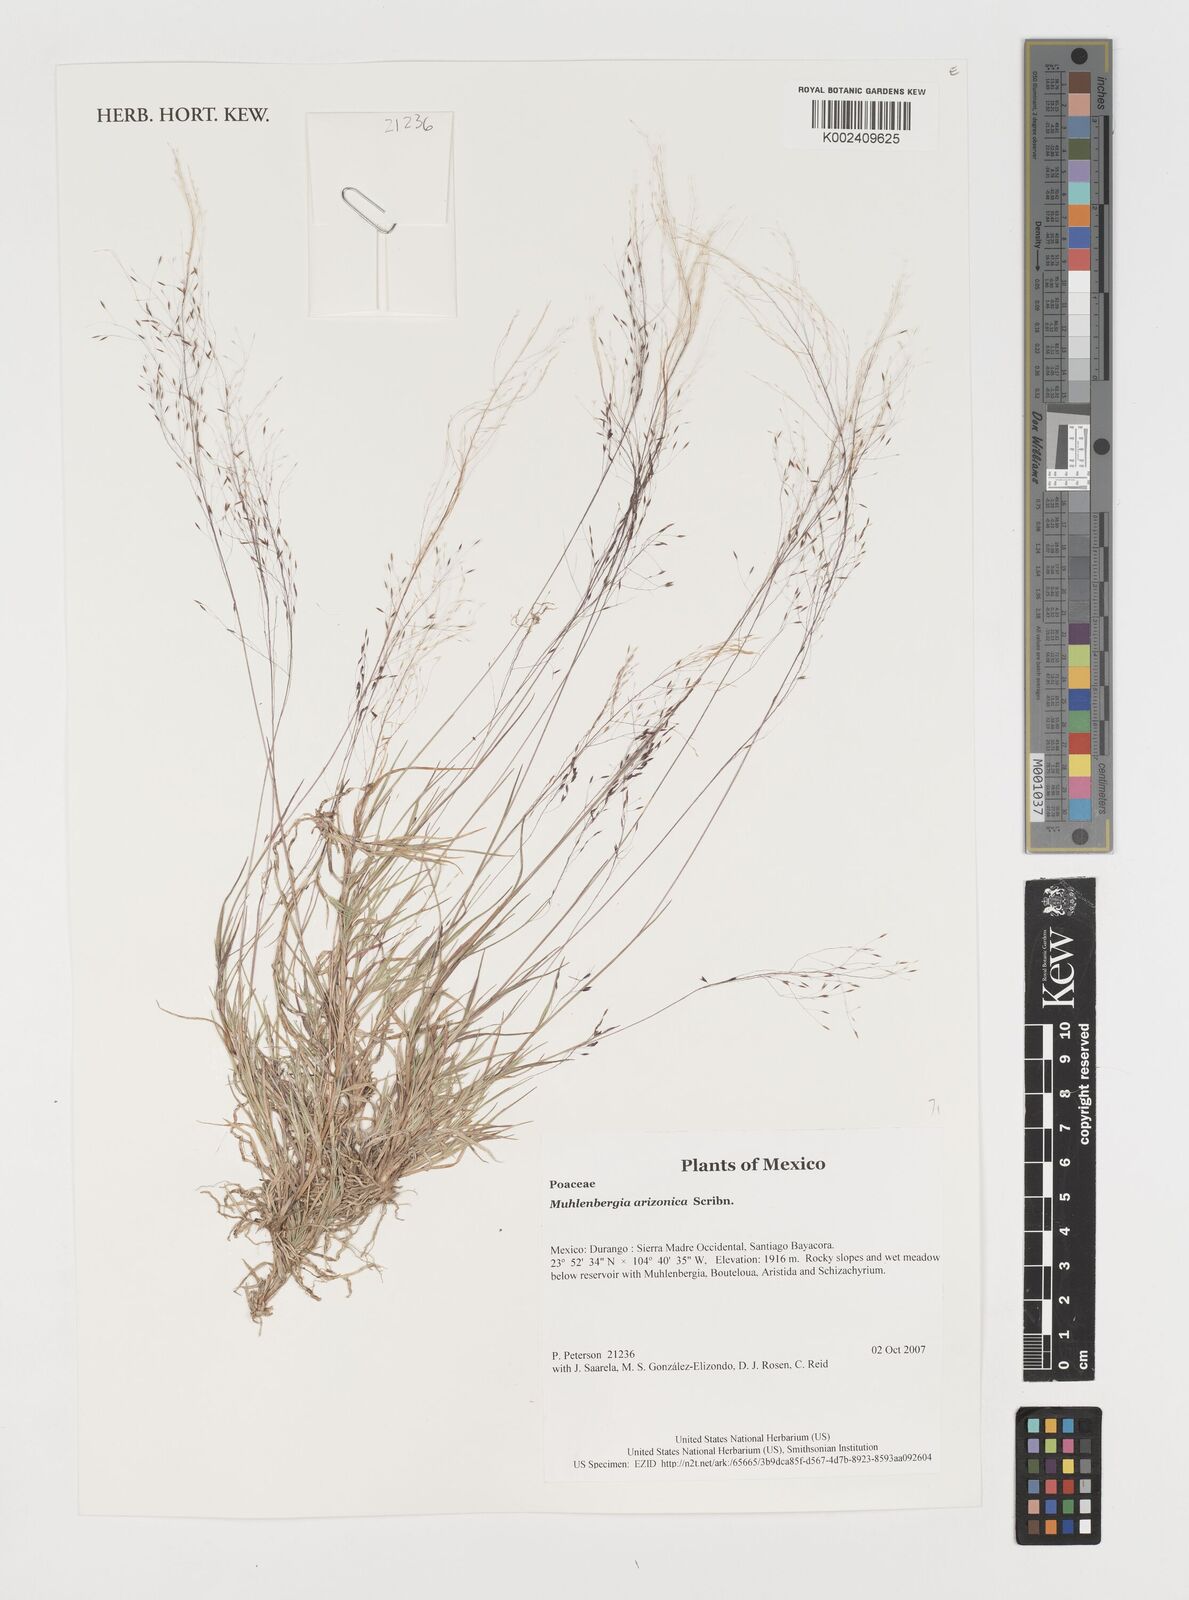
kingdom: Plantae
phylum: Tracheophyta
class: Liliopsida
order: Poales
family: Poaceae
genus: Muhlenbergia
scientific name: Muhlenbergia arizonica
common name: Arizona muhly
